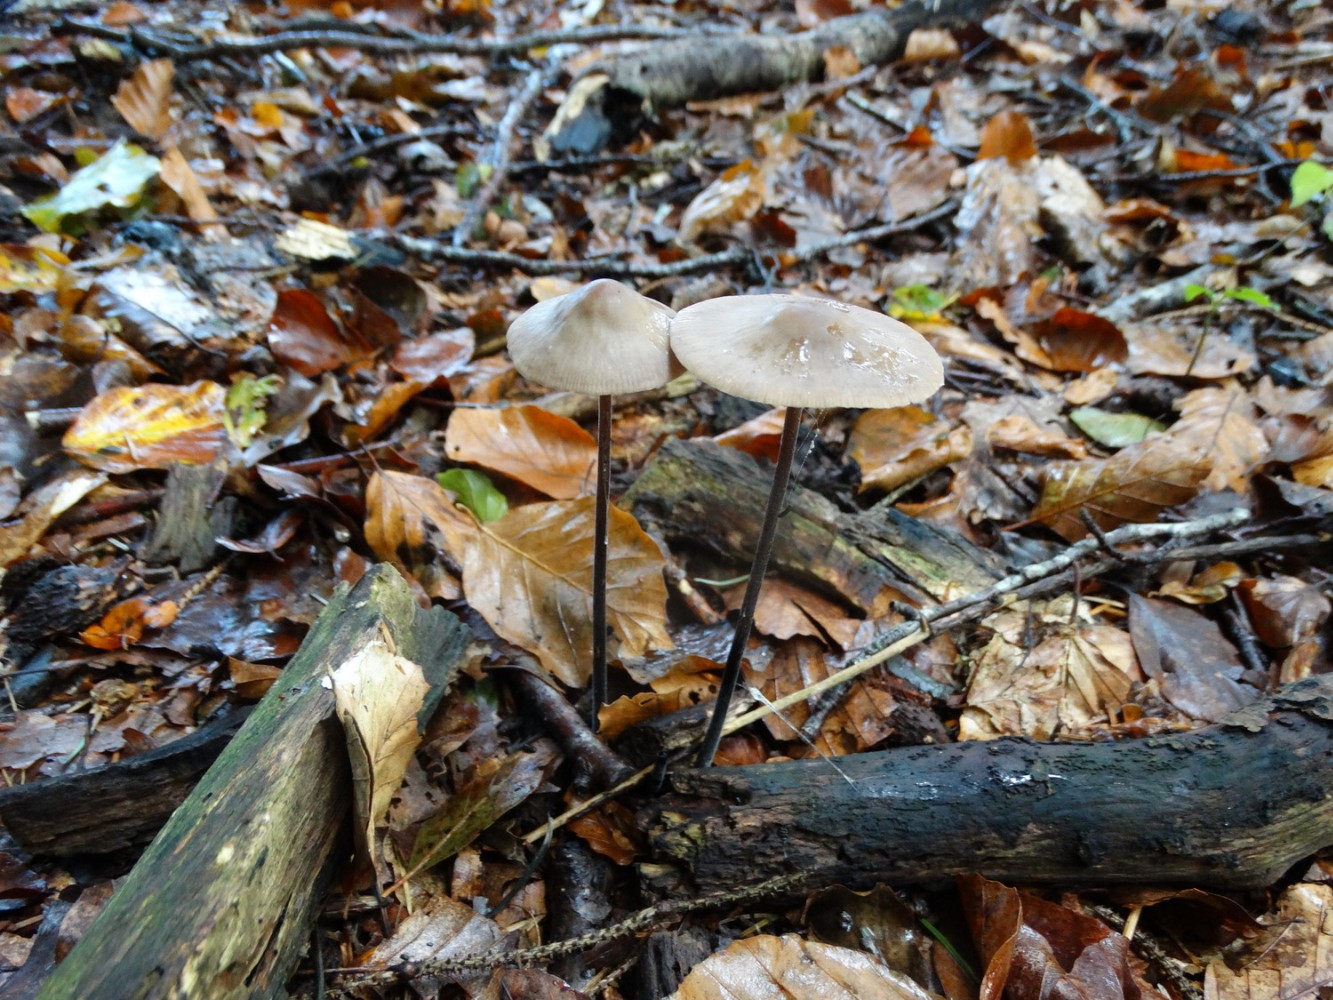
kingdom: Fungi
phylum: Basidiomycota
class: Agaricomycetes
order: Agaricales
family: Omphalotaceae
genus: Mycetinis
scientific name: Mycetinis alliaceus
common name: stor løghat
